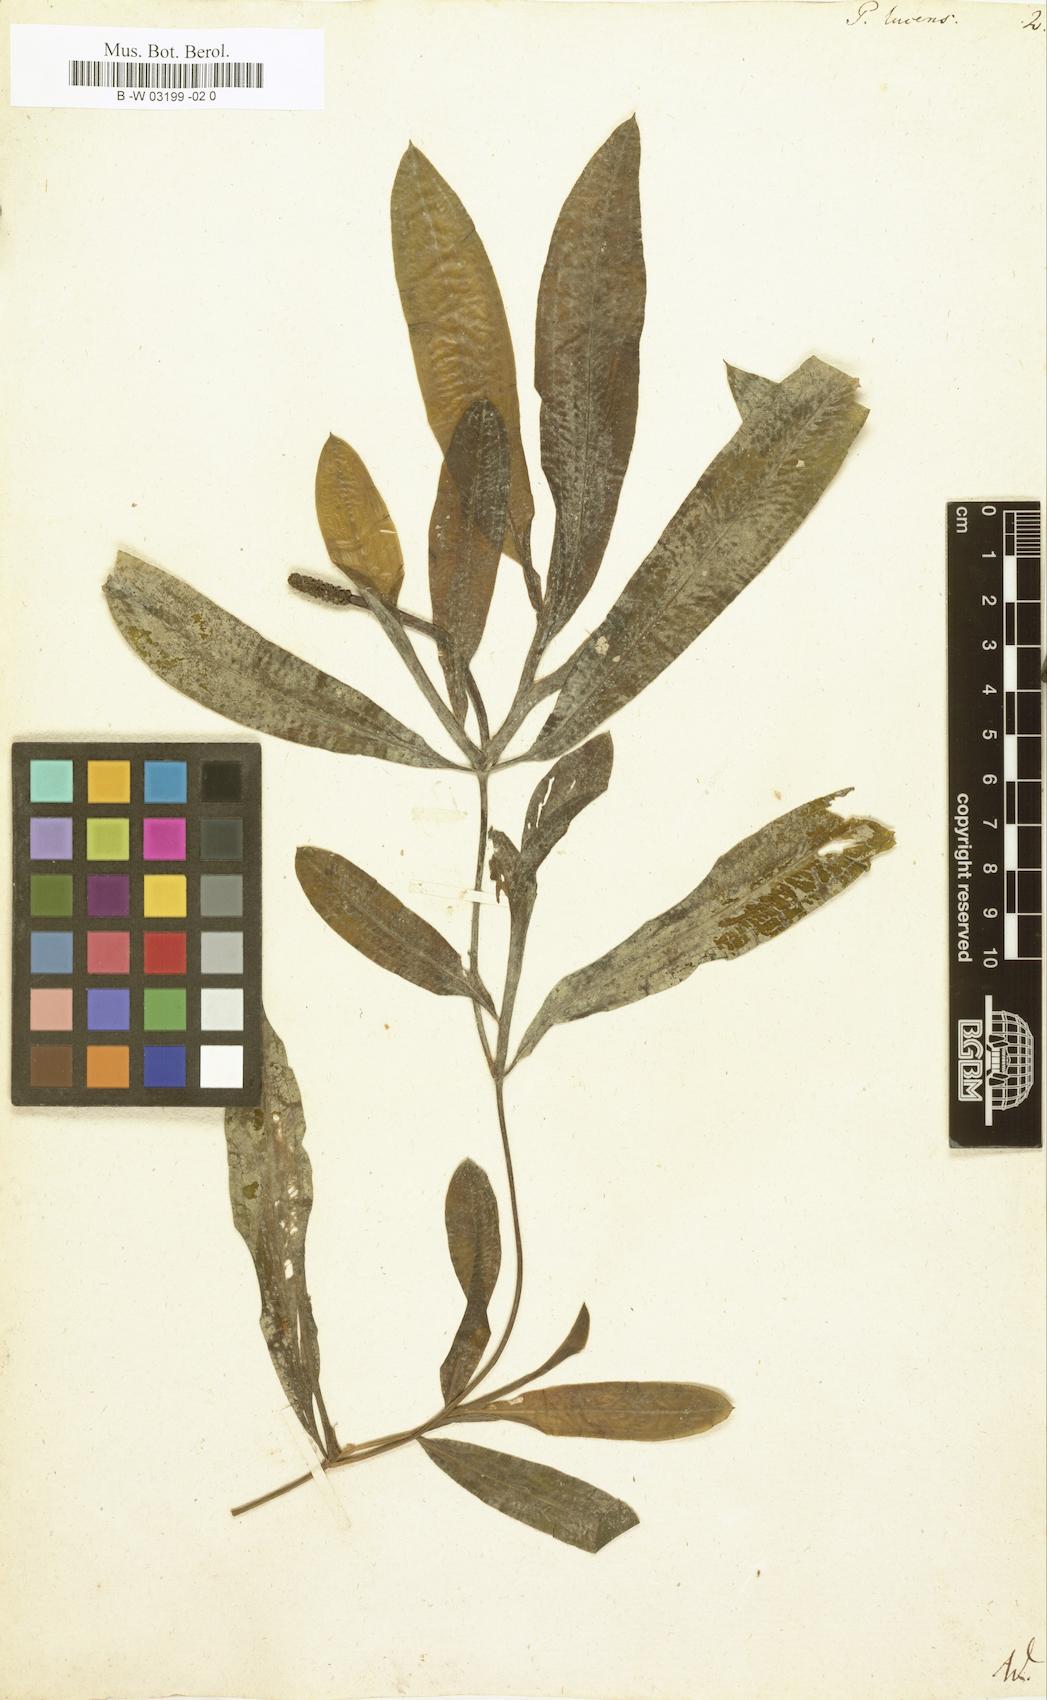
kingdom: Plantae
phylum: Tracheophyta
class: Liliopsida
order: Alismatales
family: Potamogetonaceae
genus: Potamogeton
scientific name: Potamogeton lucens
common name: Shining pondweed
